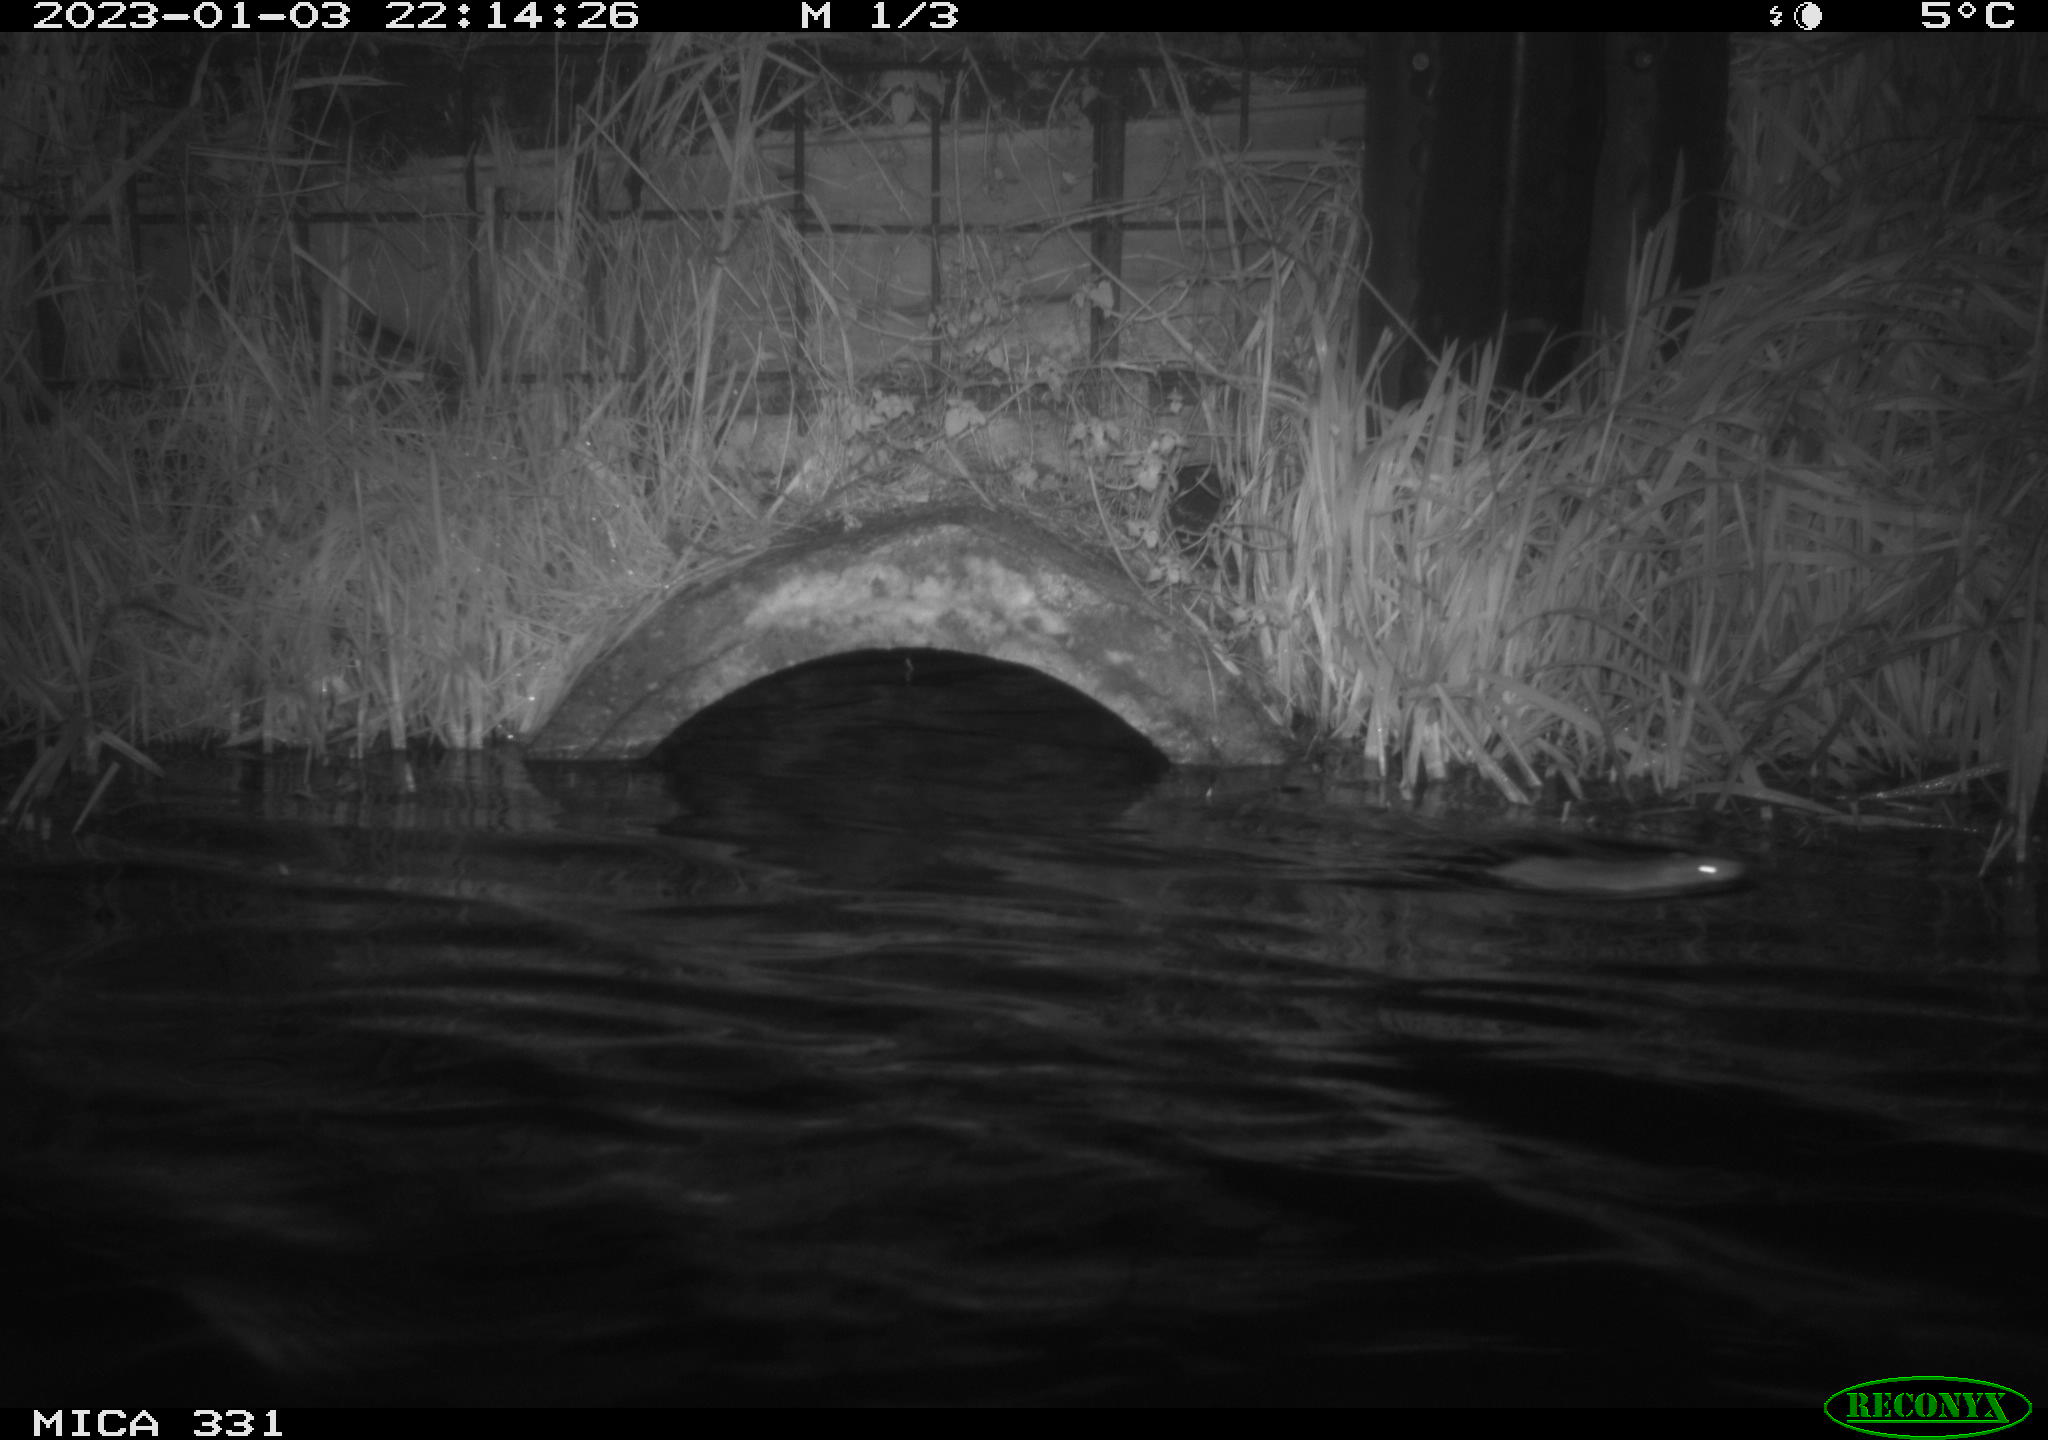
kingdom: Animalia
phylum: Chordata
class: Mammalia
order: Rodentia
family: Muridae
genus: Rattus
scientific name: Rattus norvegicus
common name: Brown rat
